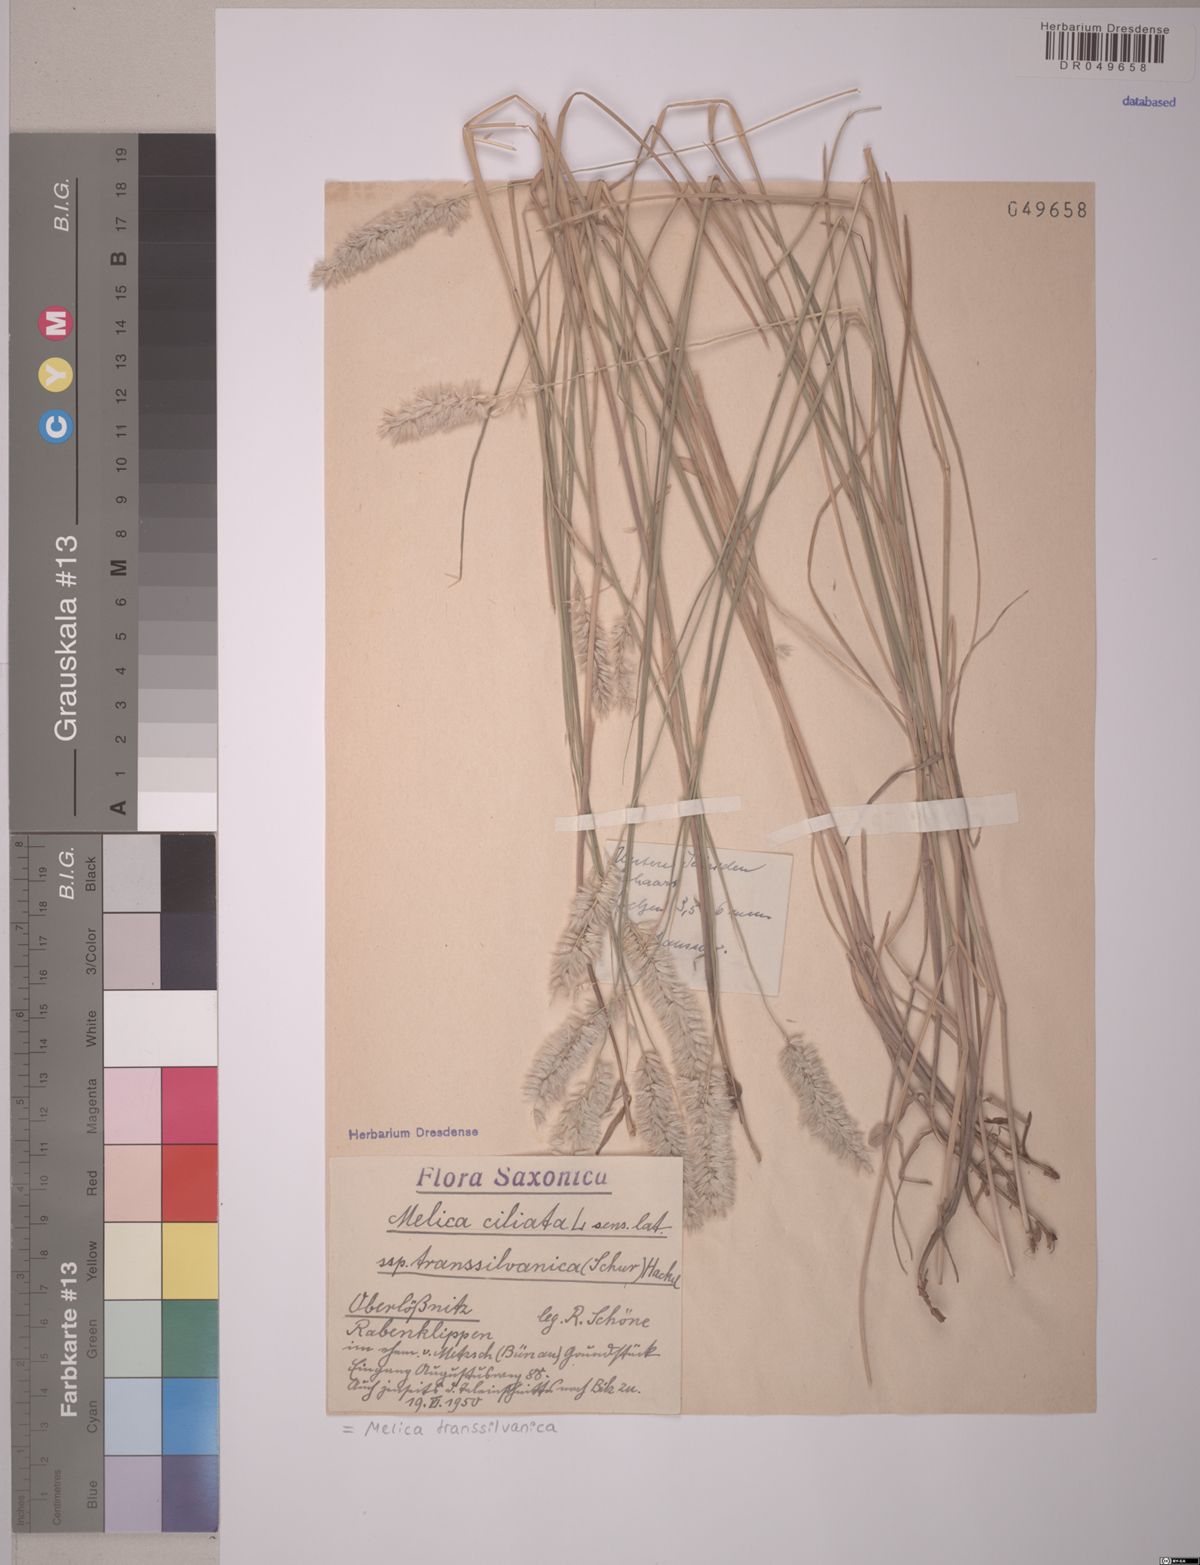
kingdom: Plantae
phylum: Tracheophyta
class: Liliopsida
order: Poales
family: Poaceae
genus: Melica
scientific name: Melica transsilvanica
